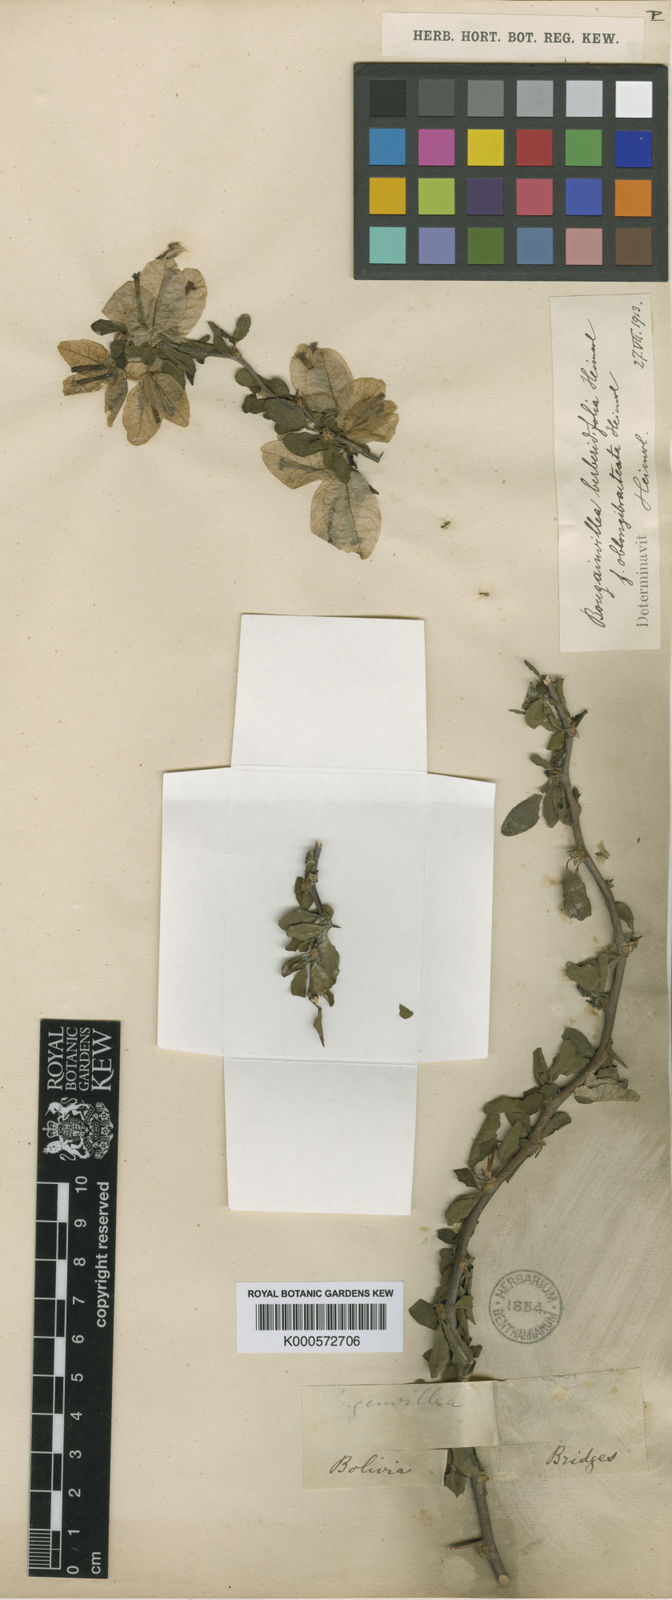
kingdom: Plantae
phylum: Tracheophyta
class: Magnoliopsida
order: Caryophyllales
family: Nyctaginaceae
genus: Bougainvillea
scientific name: Bougainvillea berberidifolia
